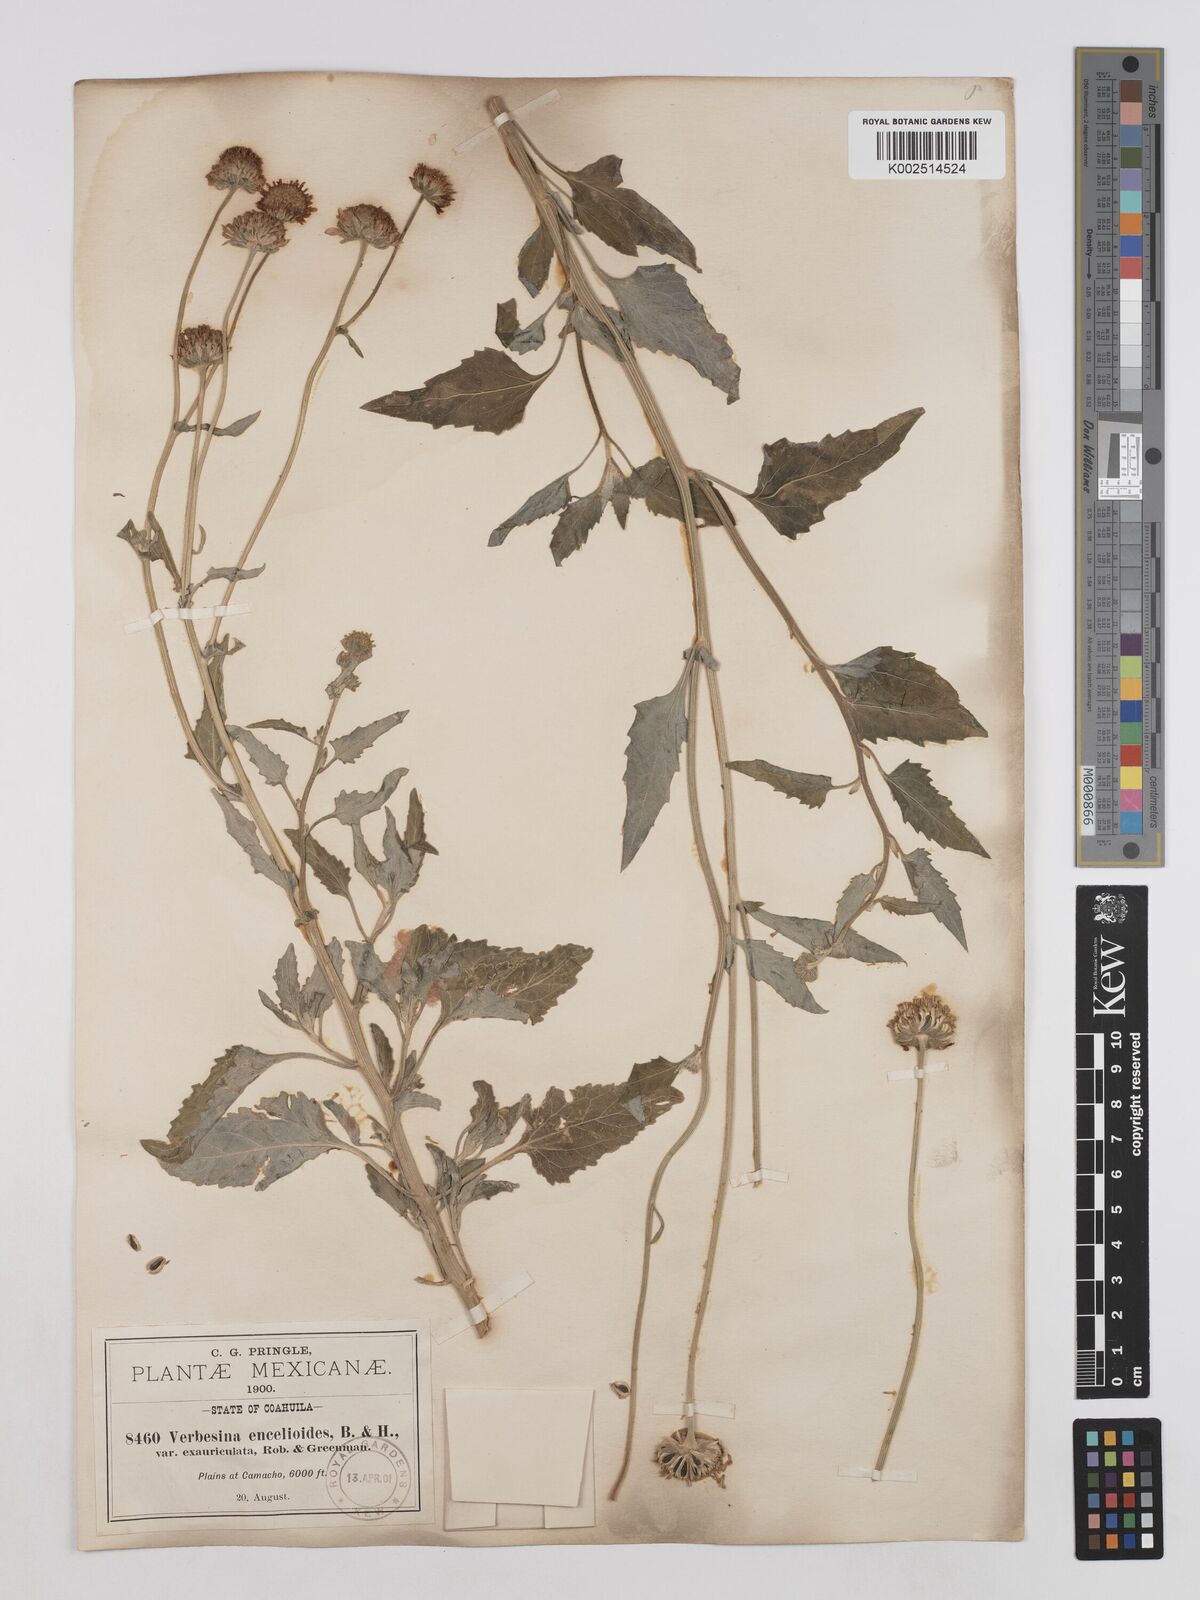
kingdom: Plantae
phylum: Tracheophyta
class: Magnoliopsida
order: Asterales
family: Asteraceae
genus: Verbesina
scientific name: Verbesina encelioides
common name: Golden crownbeard
